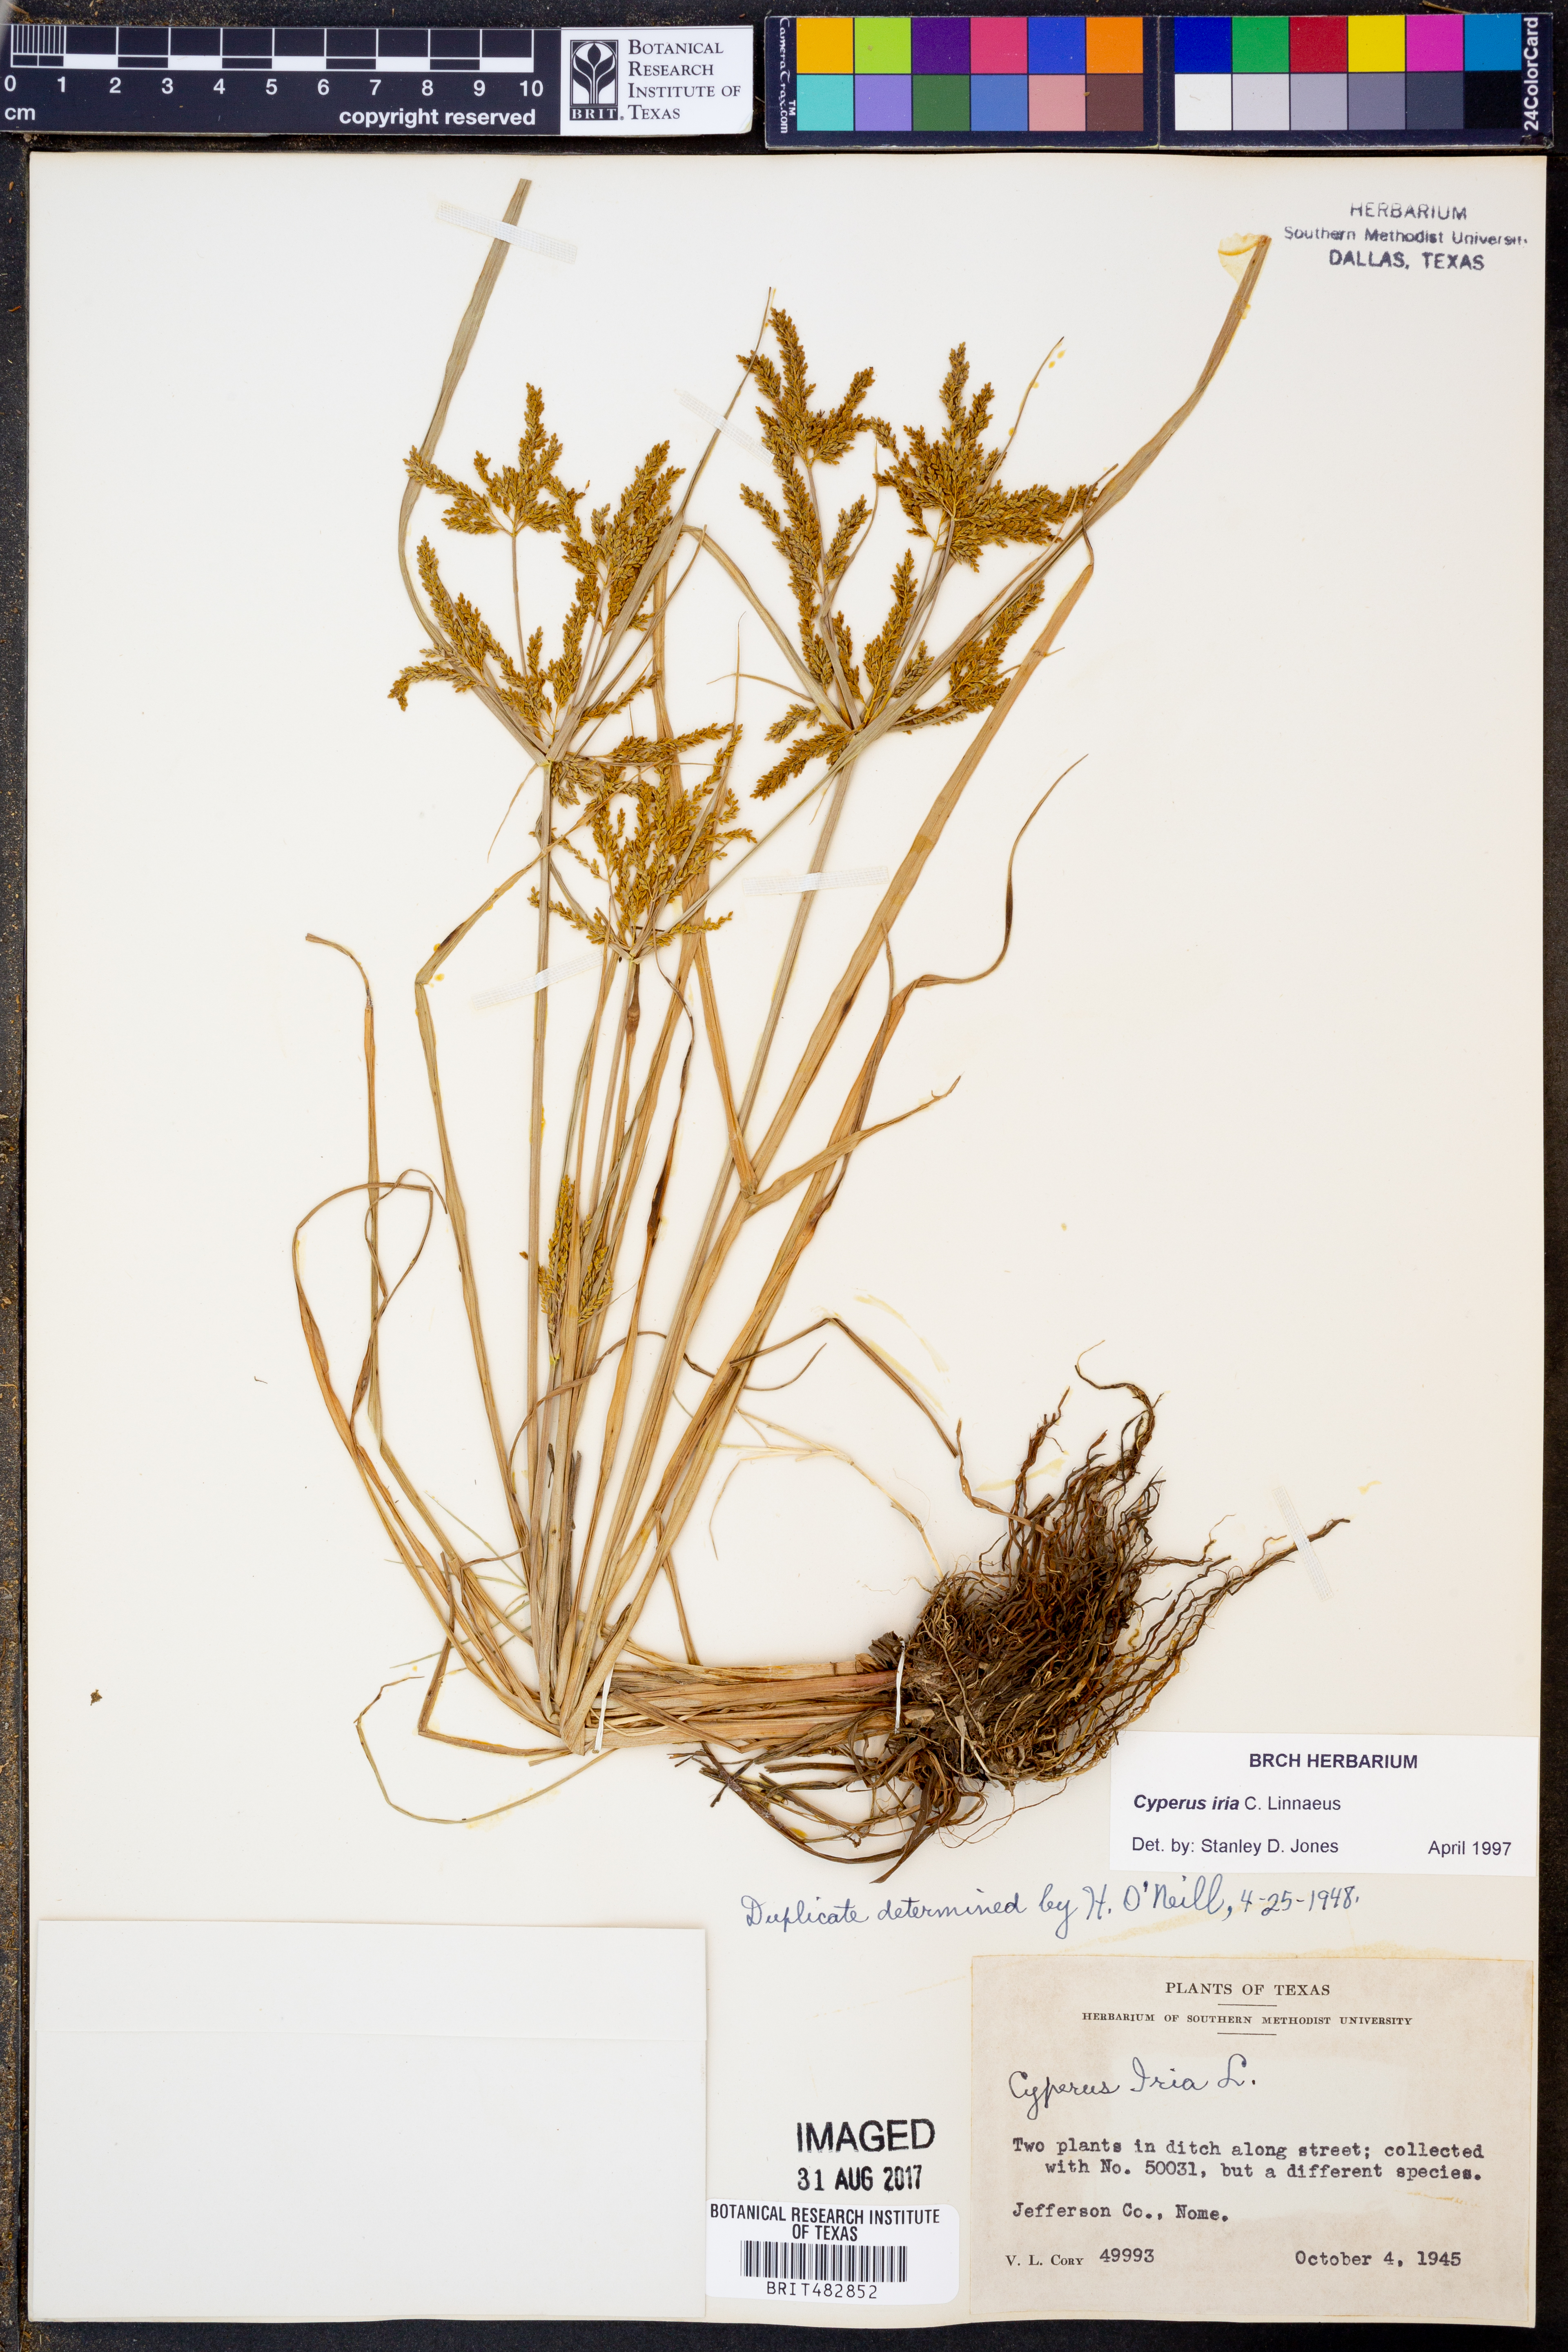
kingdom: Plantae
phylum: Tracheophyta
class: Liliopsida
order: Poales
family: Cyperaceae
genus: Cyperus
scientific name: Cyperus iria
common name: Ricefield flatsedge
